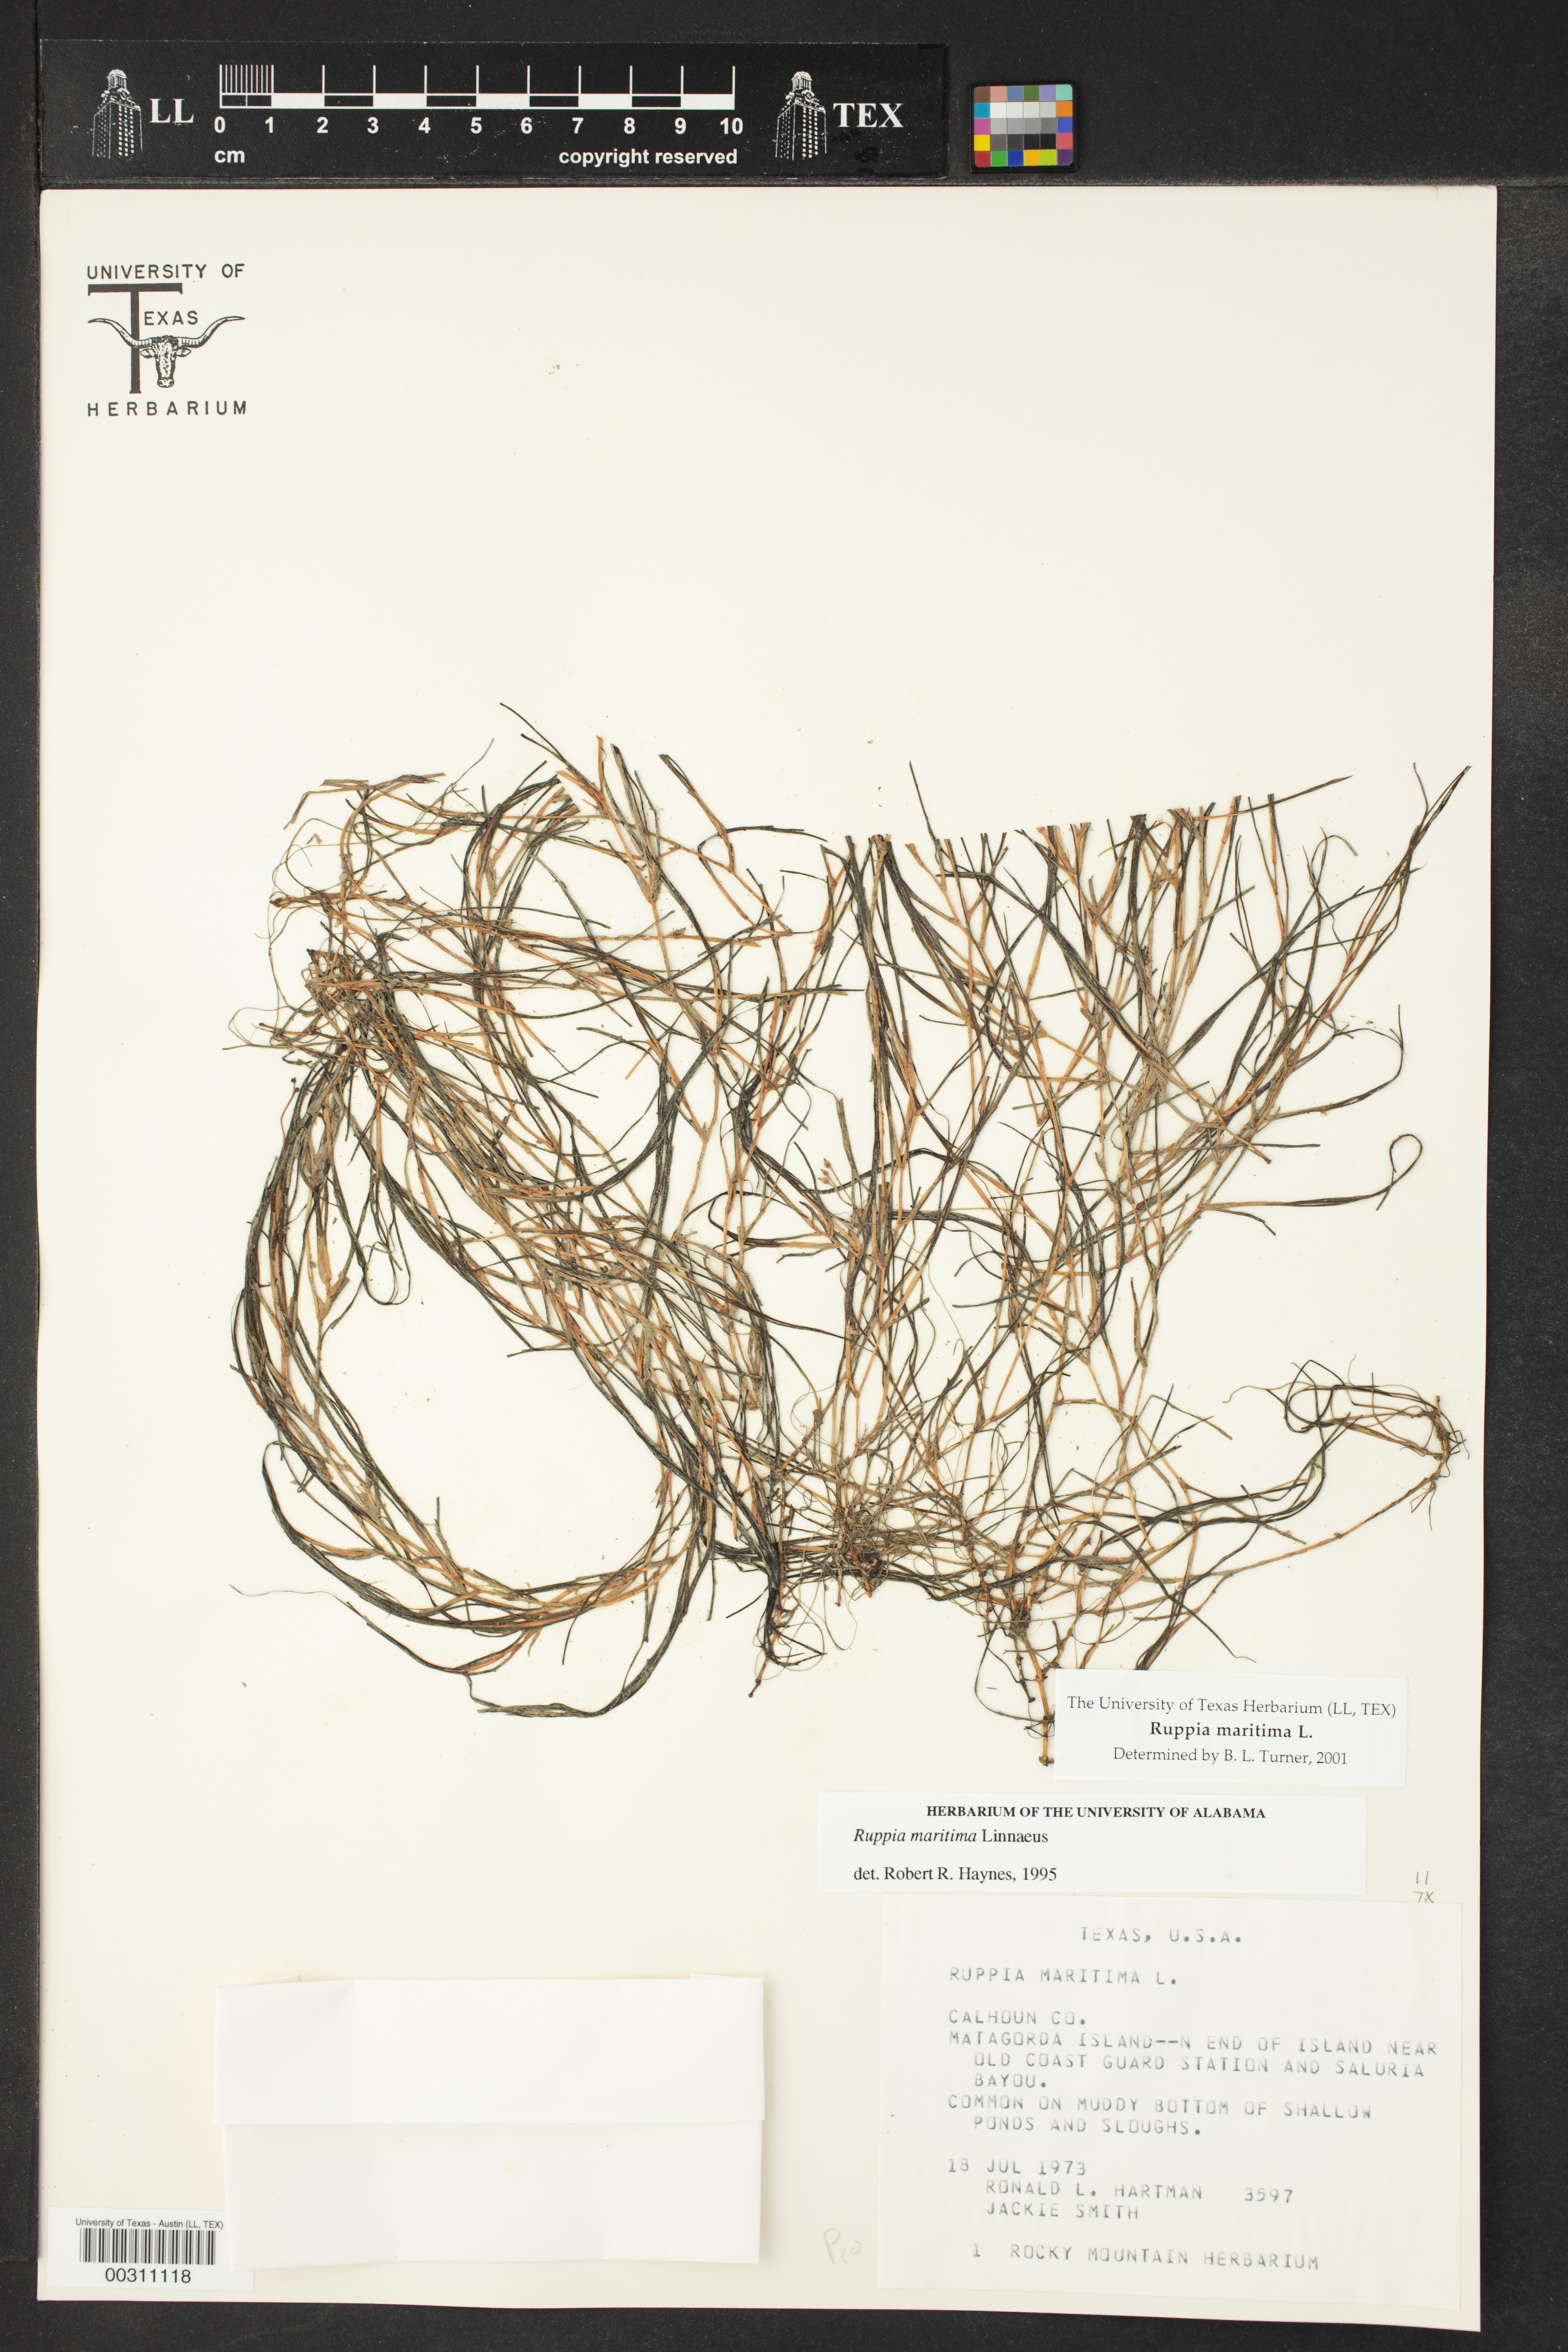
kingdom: Plantae
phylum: Tracheophyta
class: Liliopsida
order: Alismatales
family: Ruppiaceae
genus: Ruppia
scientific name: Ruppia maritima
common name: Beaked tasselweed
